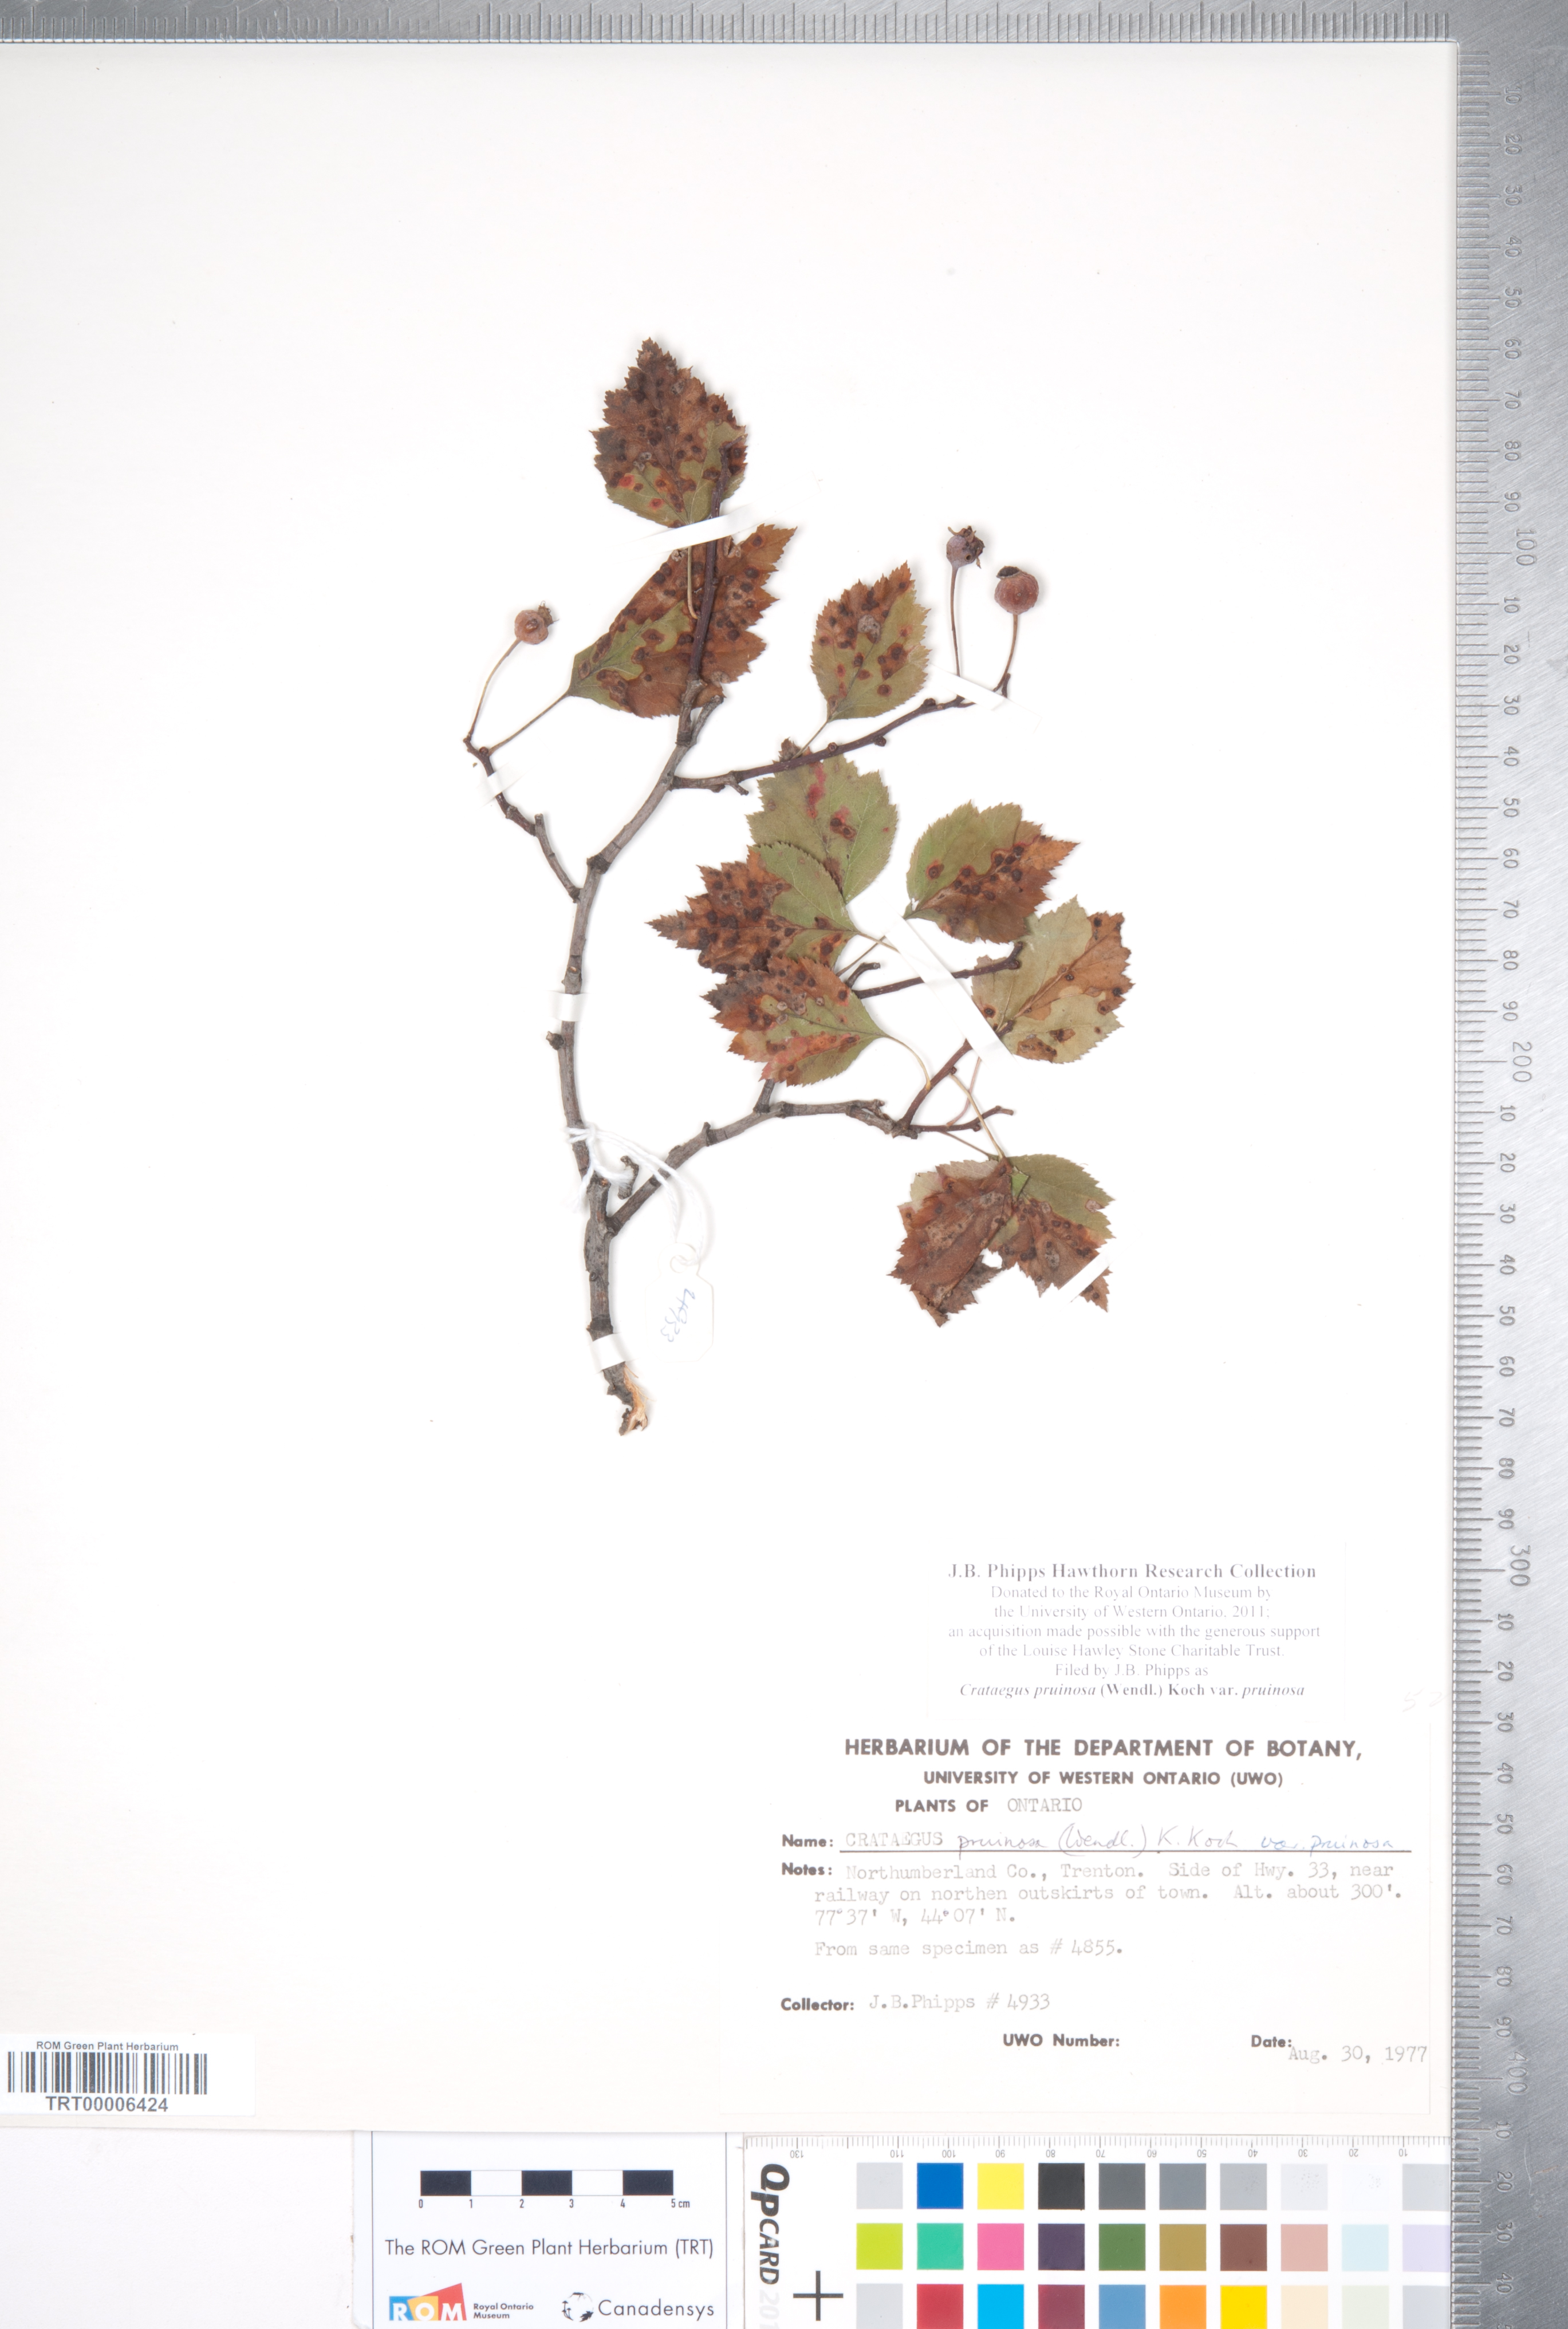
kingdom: Plantae
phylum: Tracheophyta
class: Magnoliopsida
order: Rosales
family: Rosaceae
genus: Crataegus
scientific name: Crataegus pruinosa
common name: Waxy-fruit hawthorn
